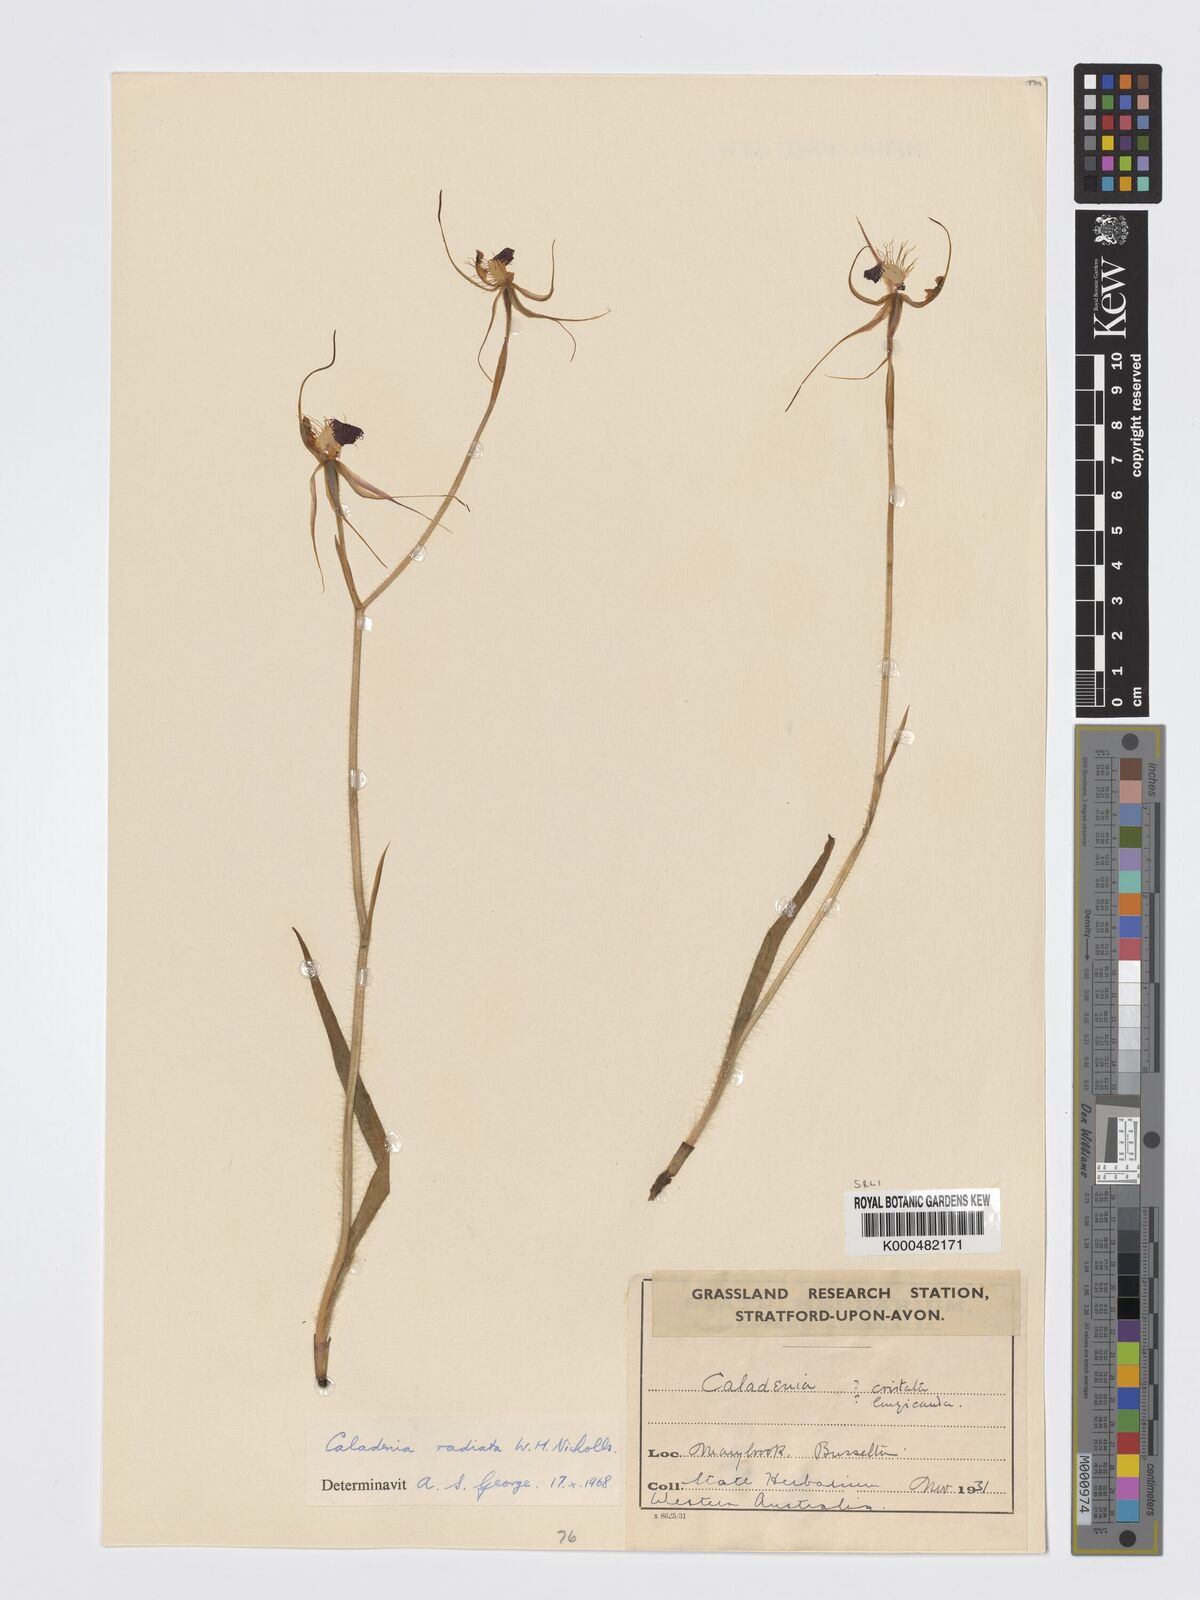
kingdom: Plantae
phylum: Tracheophyta
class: Liliopsida
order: Asparagales
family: Orchidaceae
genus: Caladenia
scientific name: Caladenia
